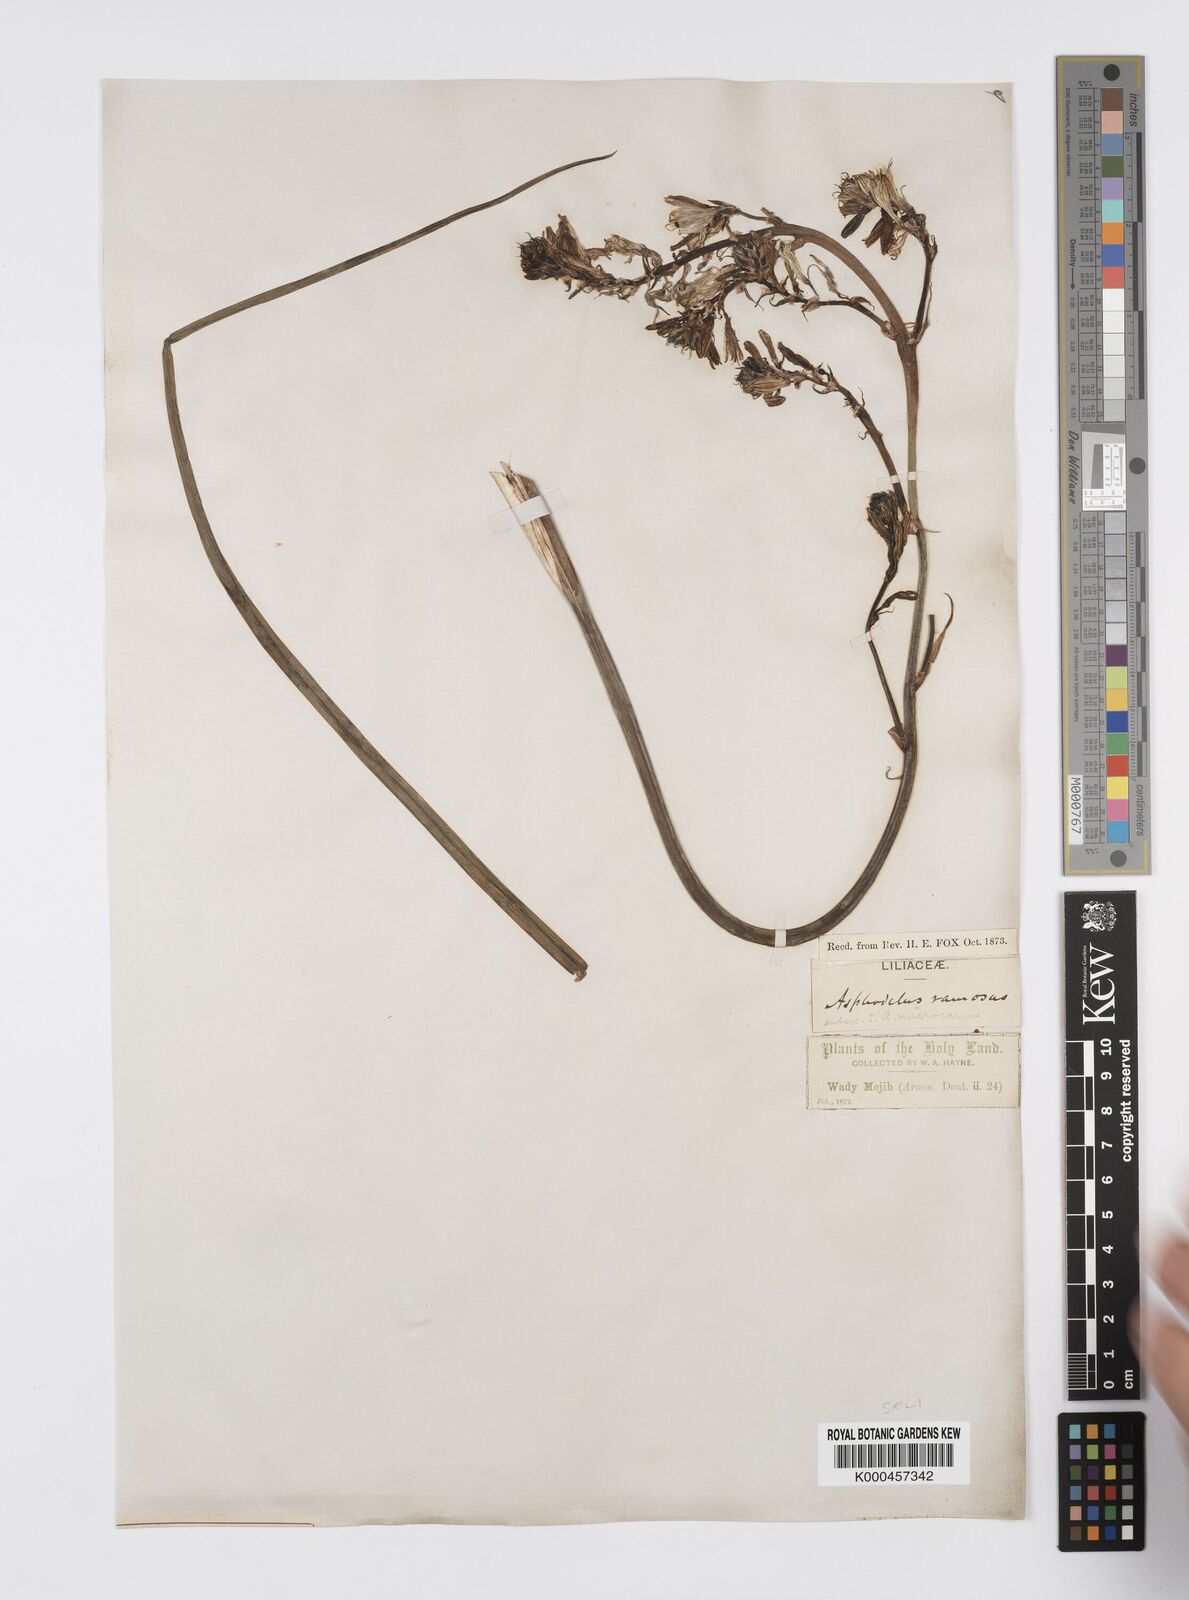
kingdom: Plantae
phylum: Tracheophyta
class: Liliopsida
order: Asparagales
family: Asphodelaceae
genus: Asphodelus
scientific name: Asphodelus aestivus
